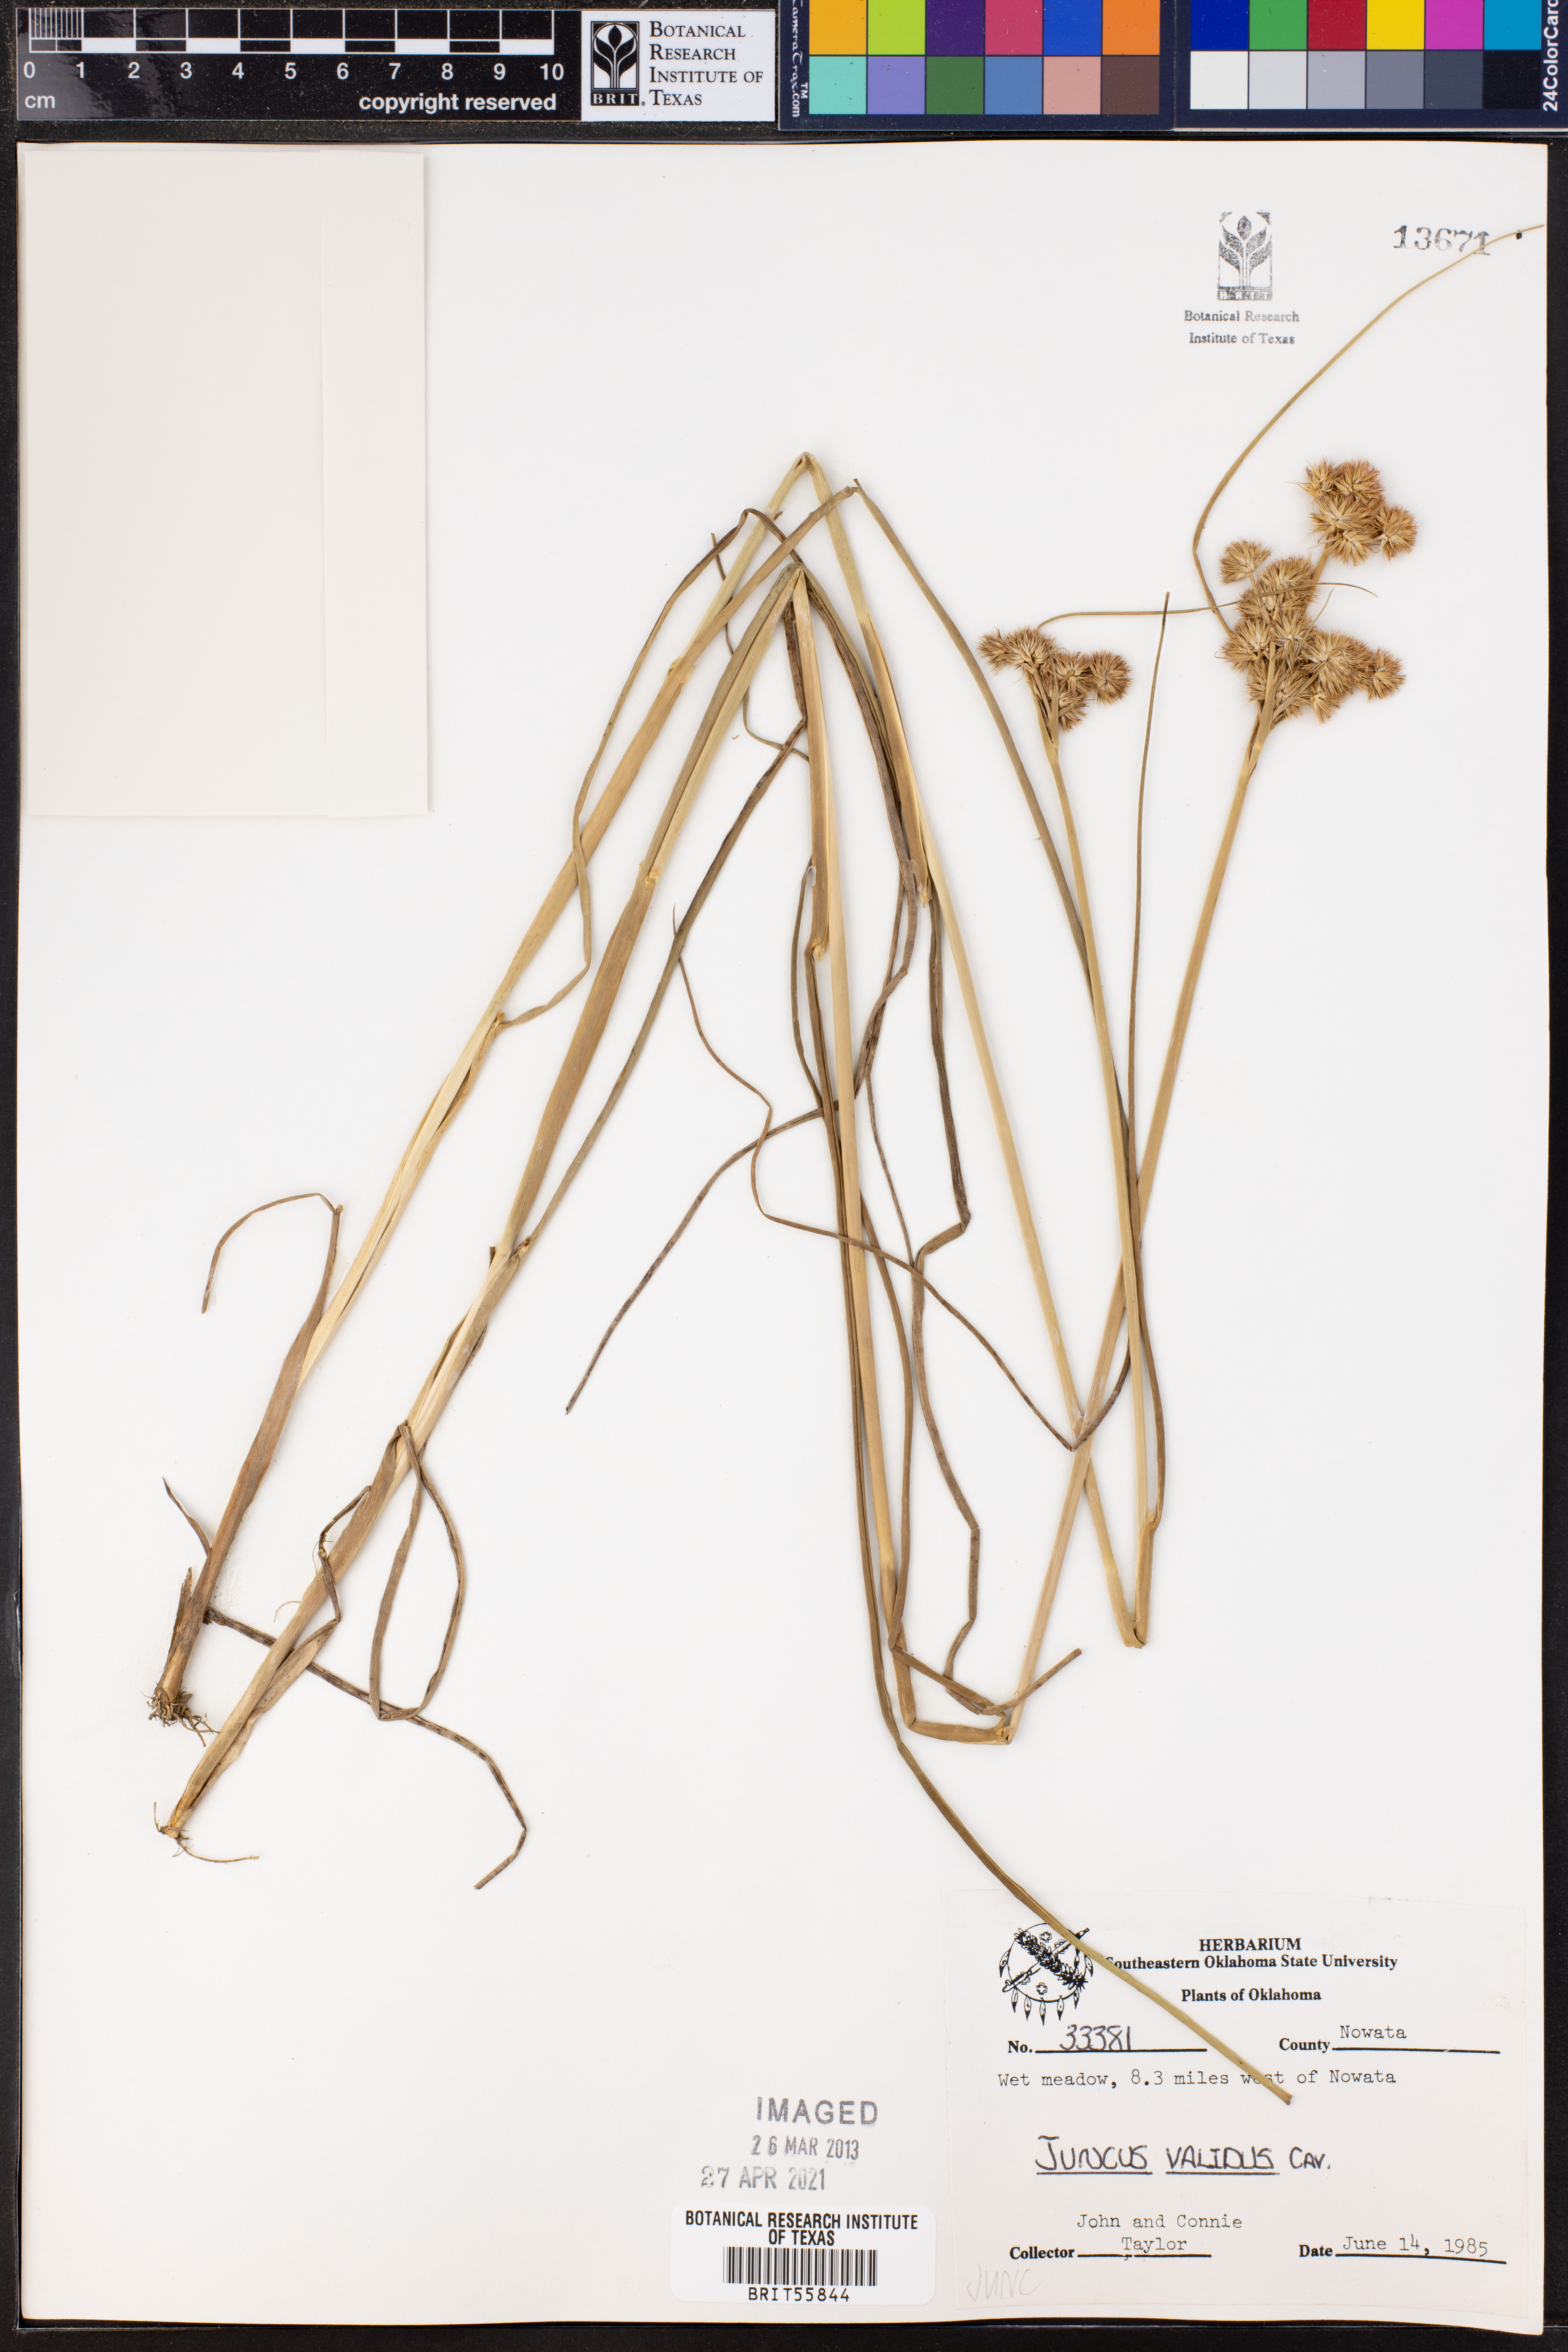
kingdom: Plantae
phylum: Tracheophyta
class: Liliopsida
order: Poales
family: Juncaceae
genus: Juncus
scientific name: Juncus validus
